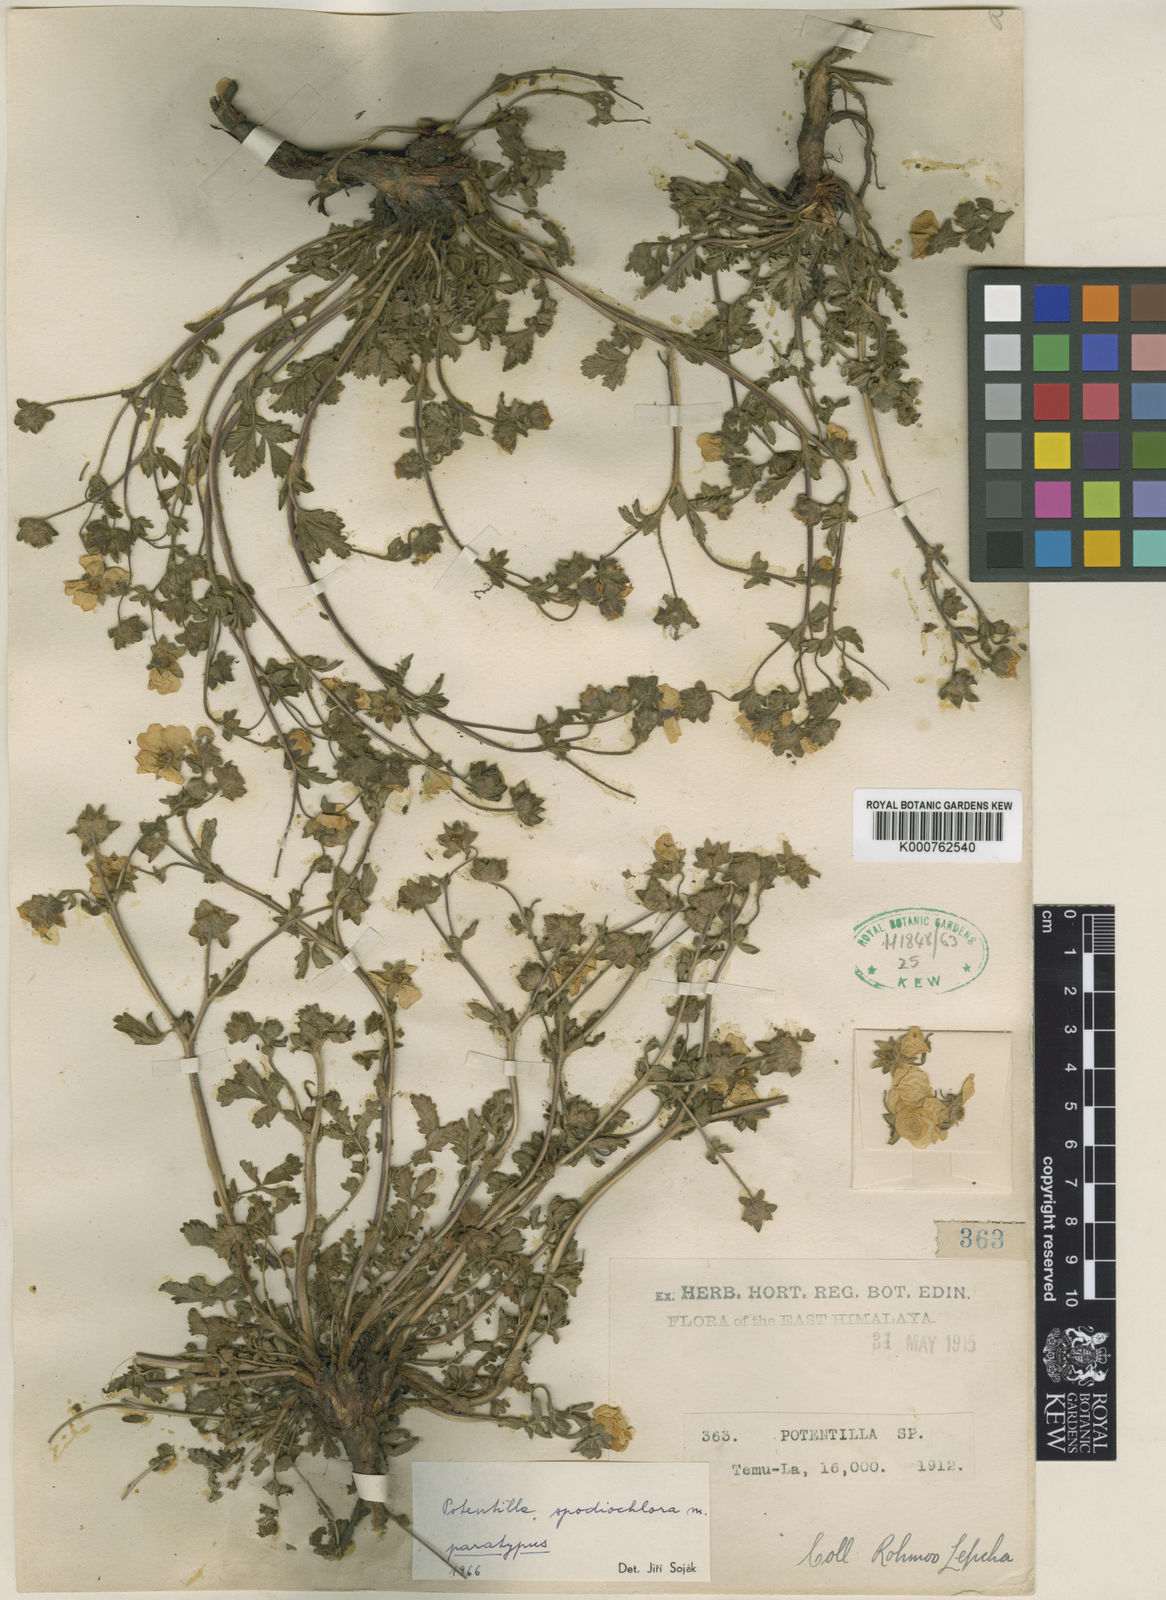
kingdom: Plantae
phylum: Tracheophyta
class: Magnoliopsida
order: Rosales
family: Rosaceae
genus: Potentilla
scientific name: Potentilla
